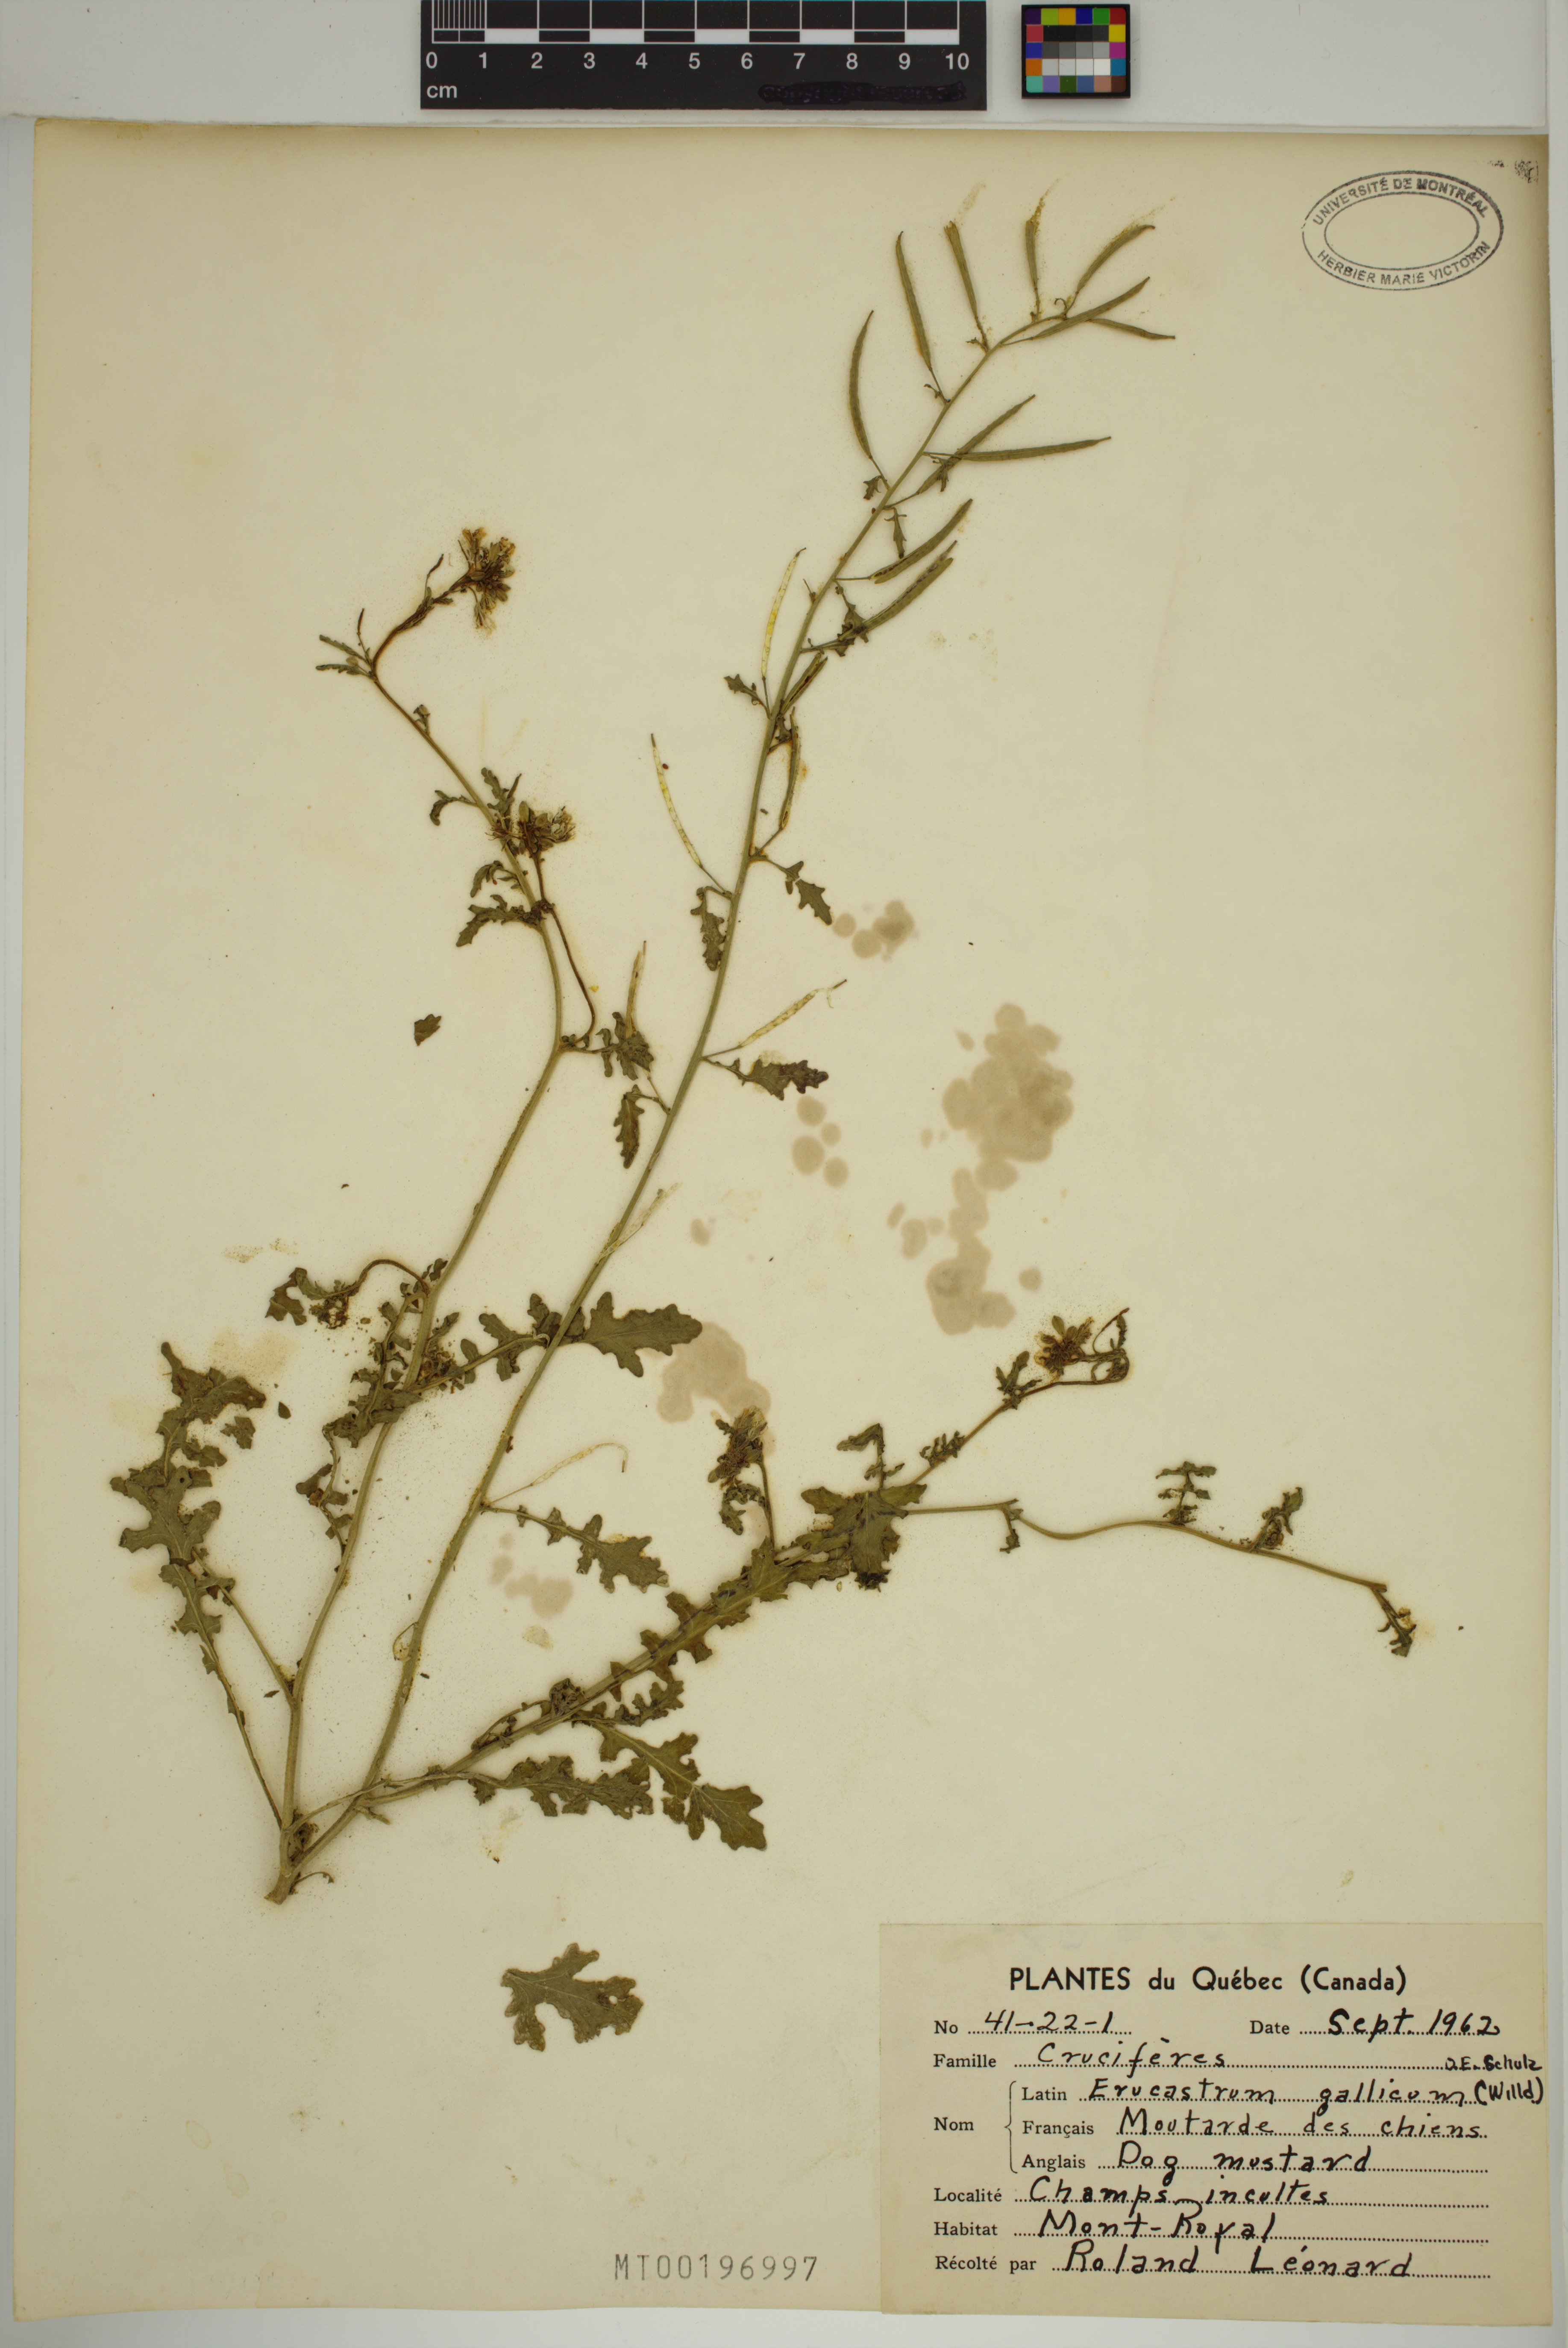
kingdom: Plantae
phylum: Tracheophyta
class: Magnoliopsida
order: Brassicales
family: Brassicaceae
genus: Erucastrum
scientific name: Erucastrum gallicum
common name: Hairy rocket
